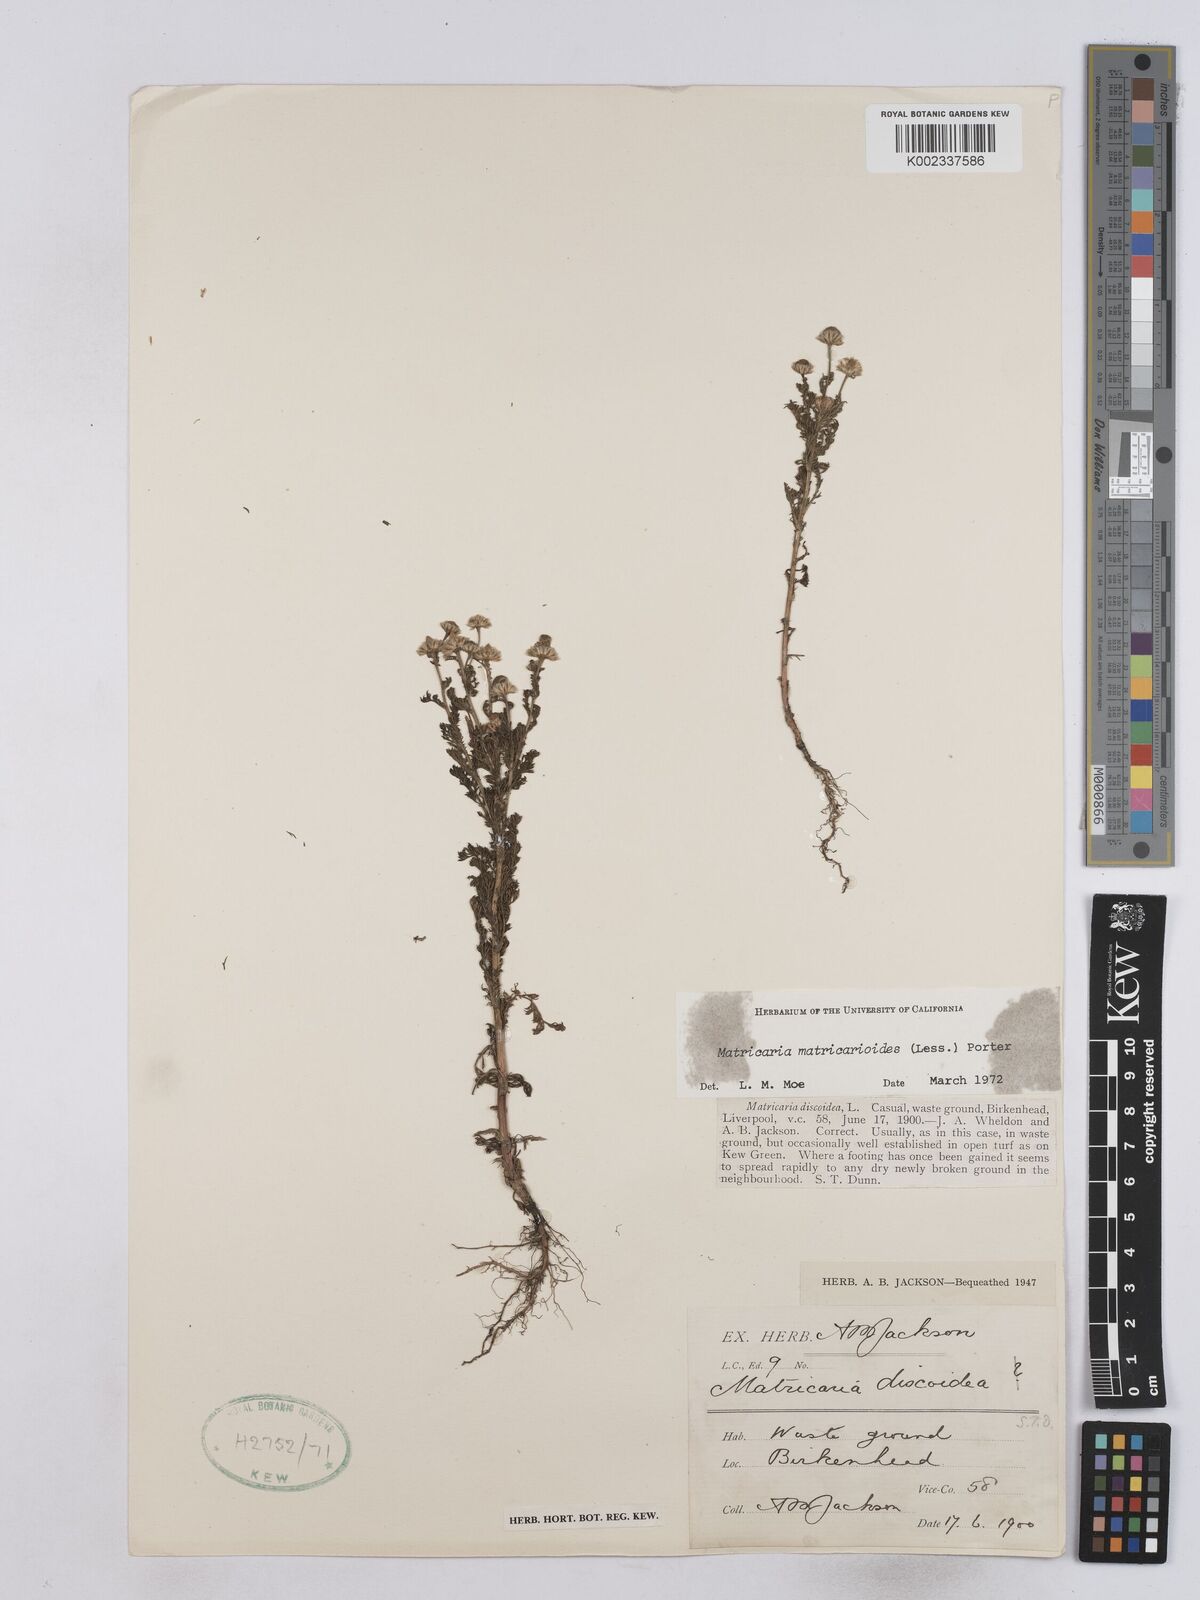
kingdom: Plantae
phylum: Tracheophyta
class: Magnoliopsida
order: Asterales
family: Asteraceae
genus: Matricaria
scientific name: Matricaria discoidea
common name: Disc mayweed
